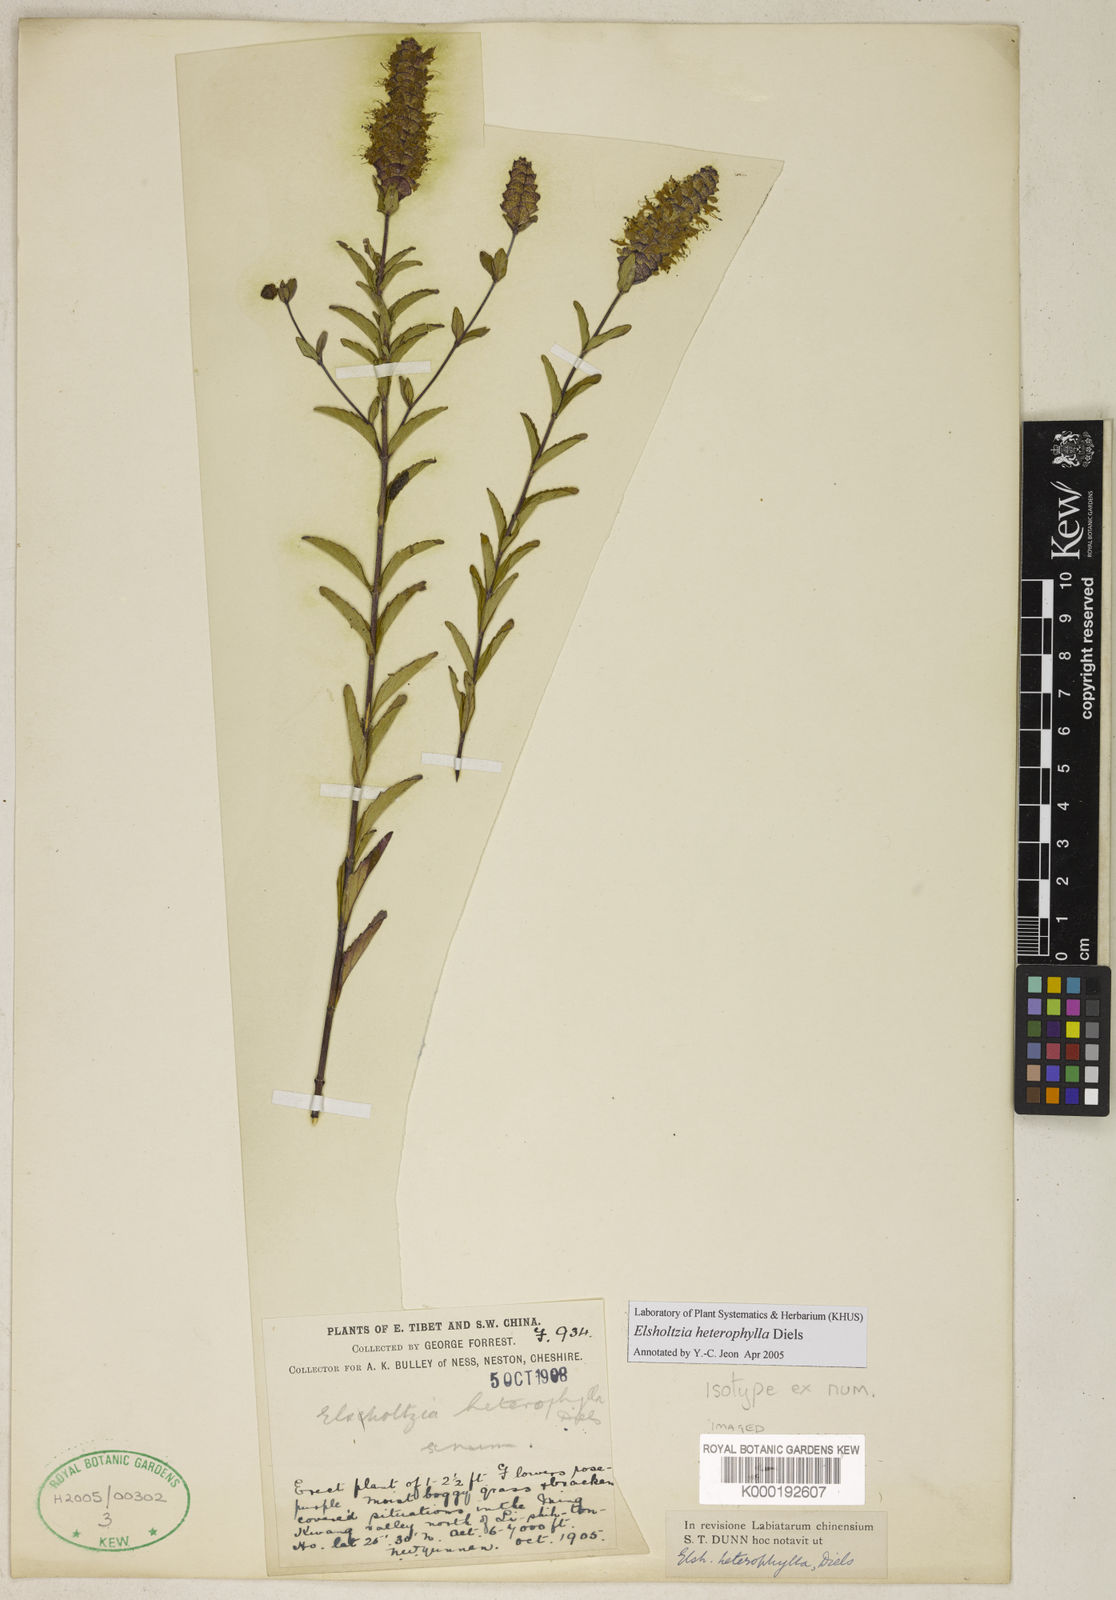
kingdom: Plantae
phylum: Tracheophyta
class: Magnoliopsida
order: Lamiales
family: Lamiaceae
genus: Elsholtzia
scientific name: Elsholtzia heterophylla
